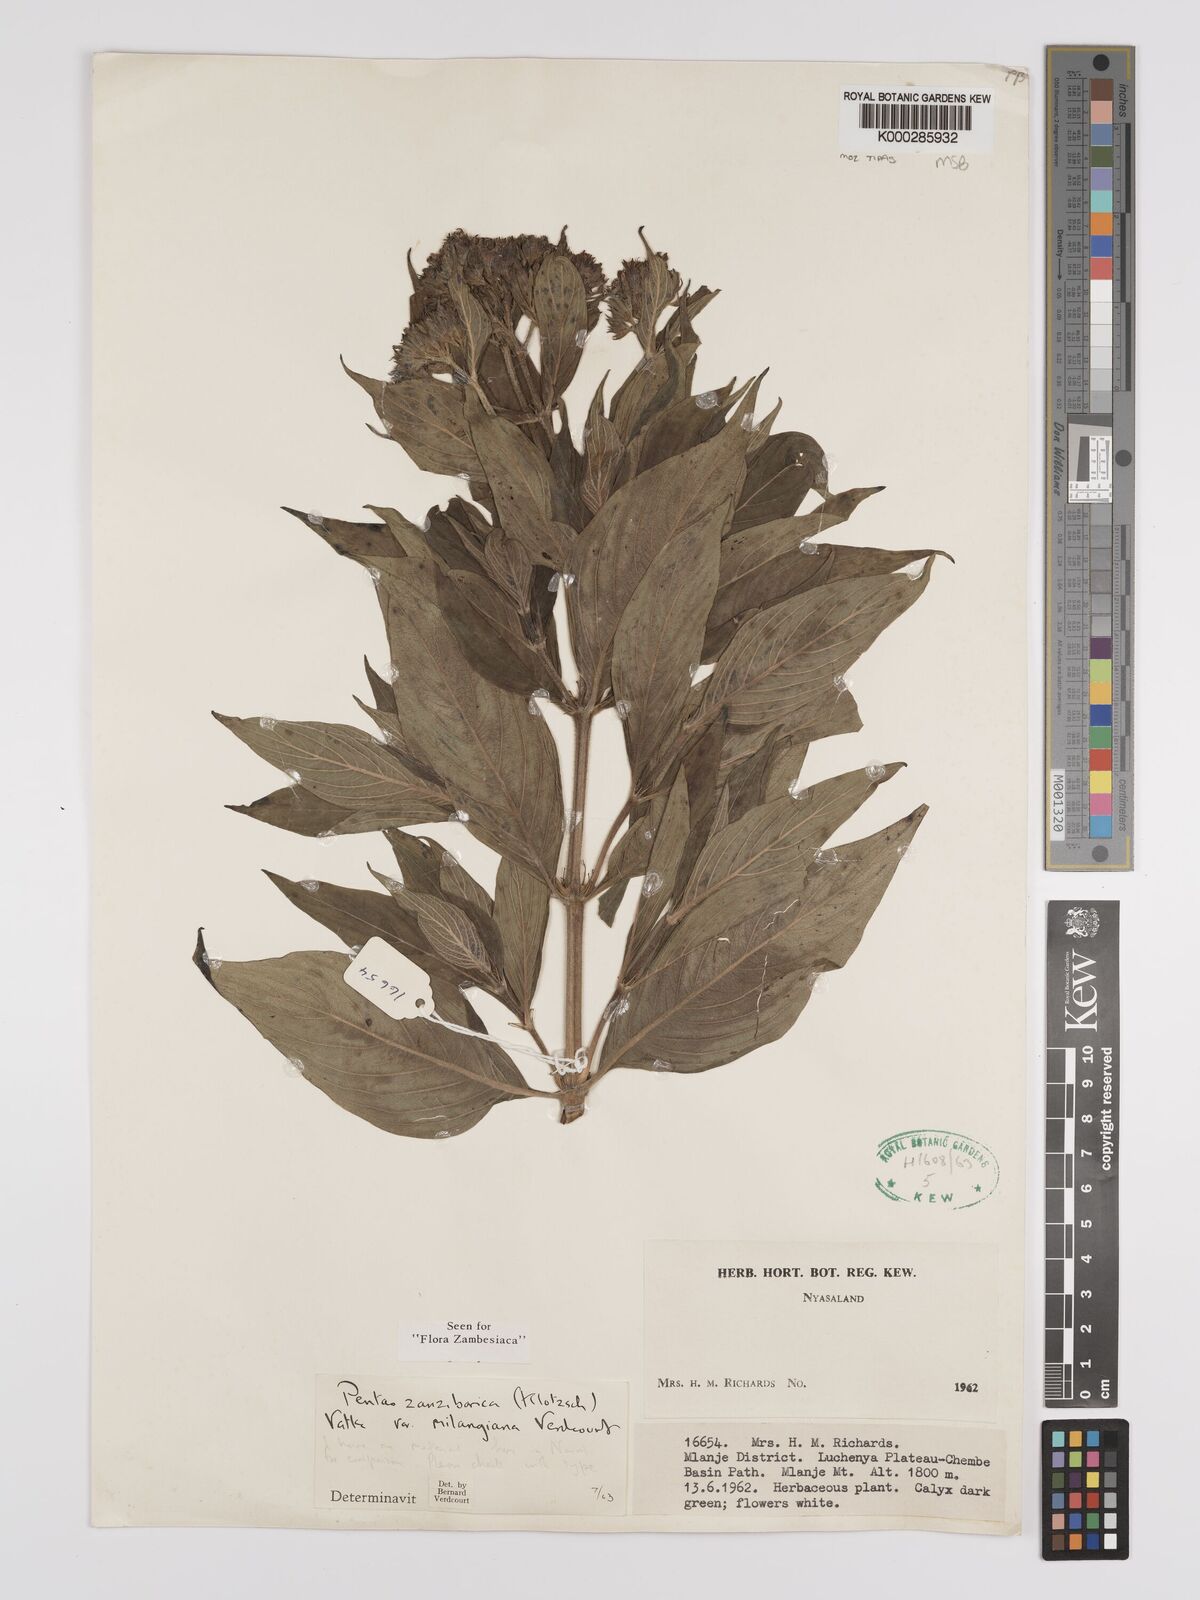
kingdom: Plantae
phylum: Tracheophyta
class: Magnoliopsida
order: Gentianales
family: Rubiaceae
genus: Pentas
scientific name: Pentas zanzibarica
